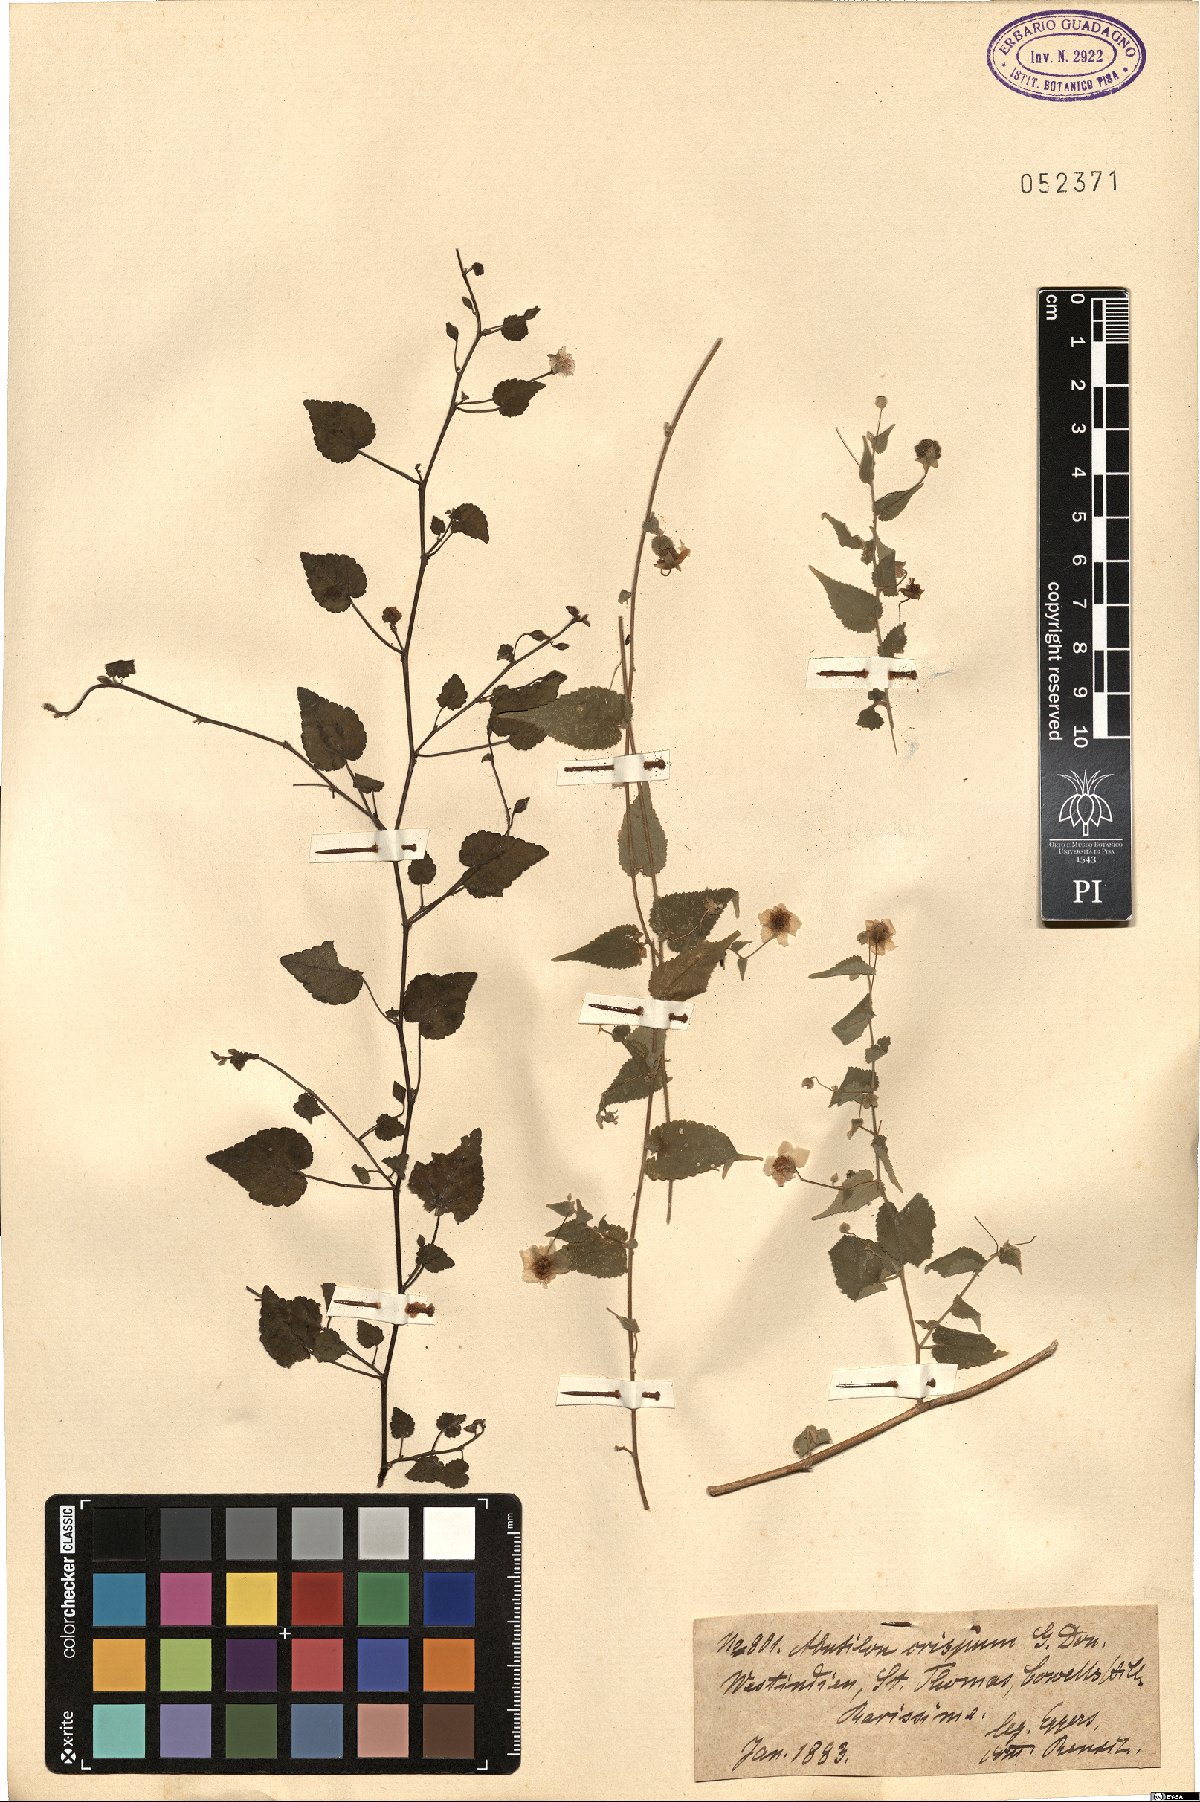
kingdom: Plantae
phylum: Tracheophyta
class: Magnoliopsida
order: Malvales
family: Malvaceae
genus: Herissantia
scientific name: Herissantia crispa
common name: Bladdermallow
